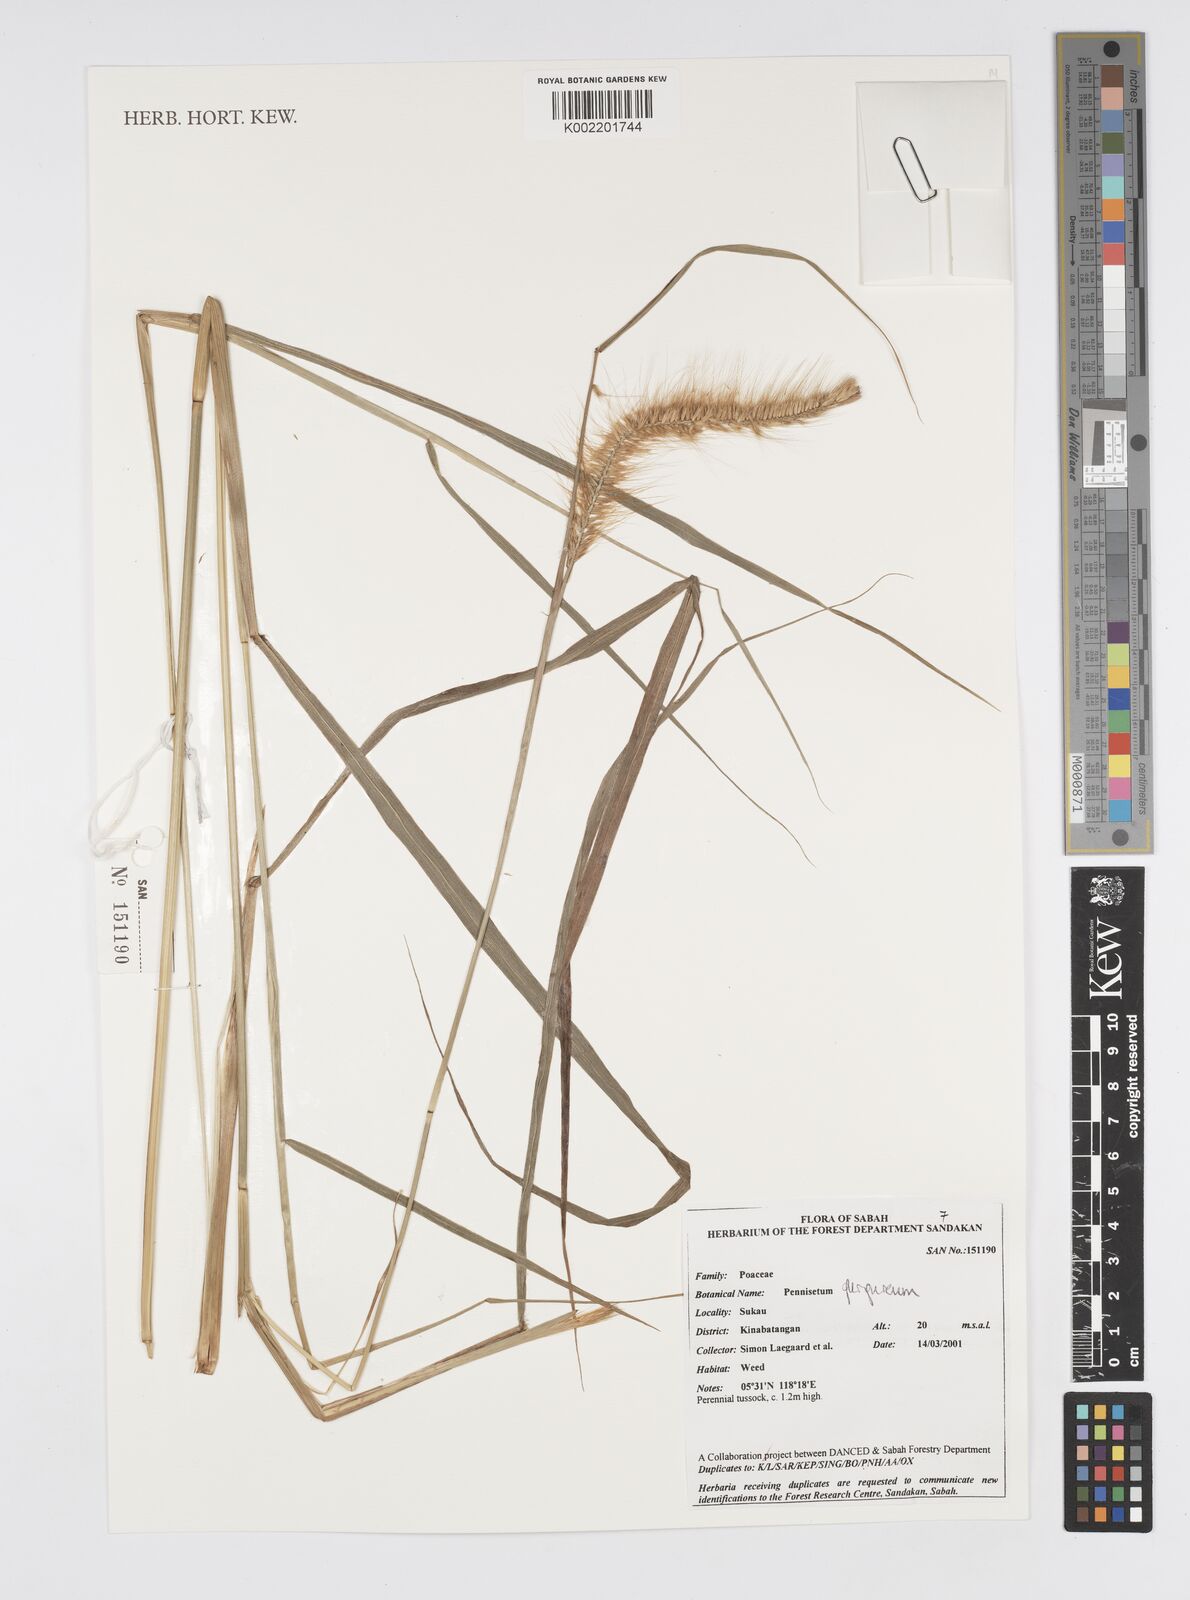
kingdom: Plantae
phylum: Tracheophyta
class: Liliopsida
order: Poales
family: Poaceae
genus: Cenchrus
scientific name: Cenchrus purpureus
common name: Elephant grass
